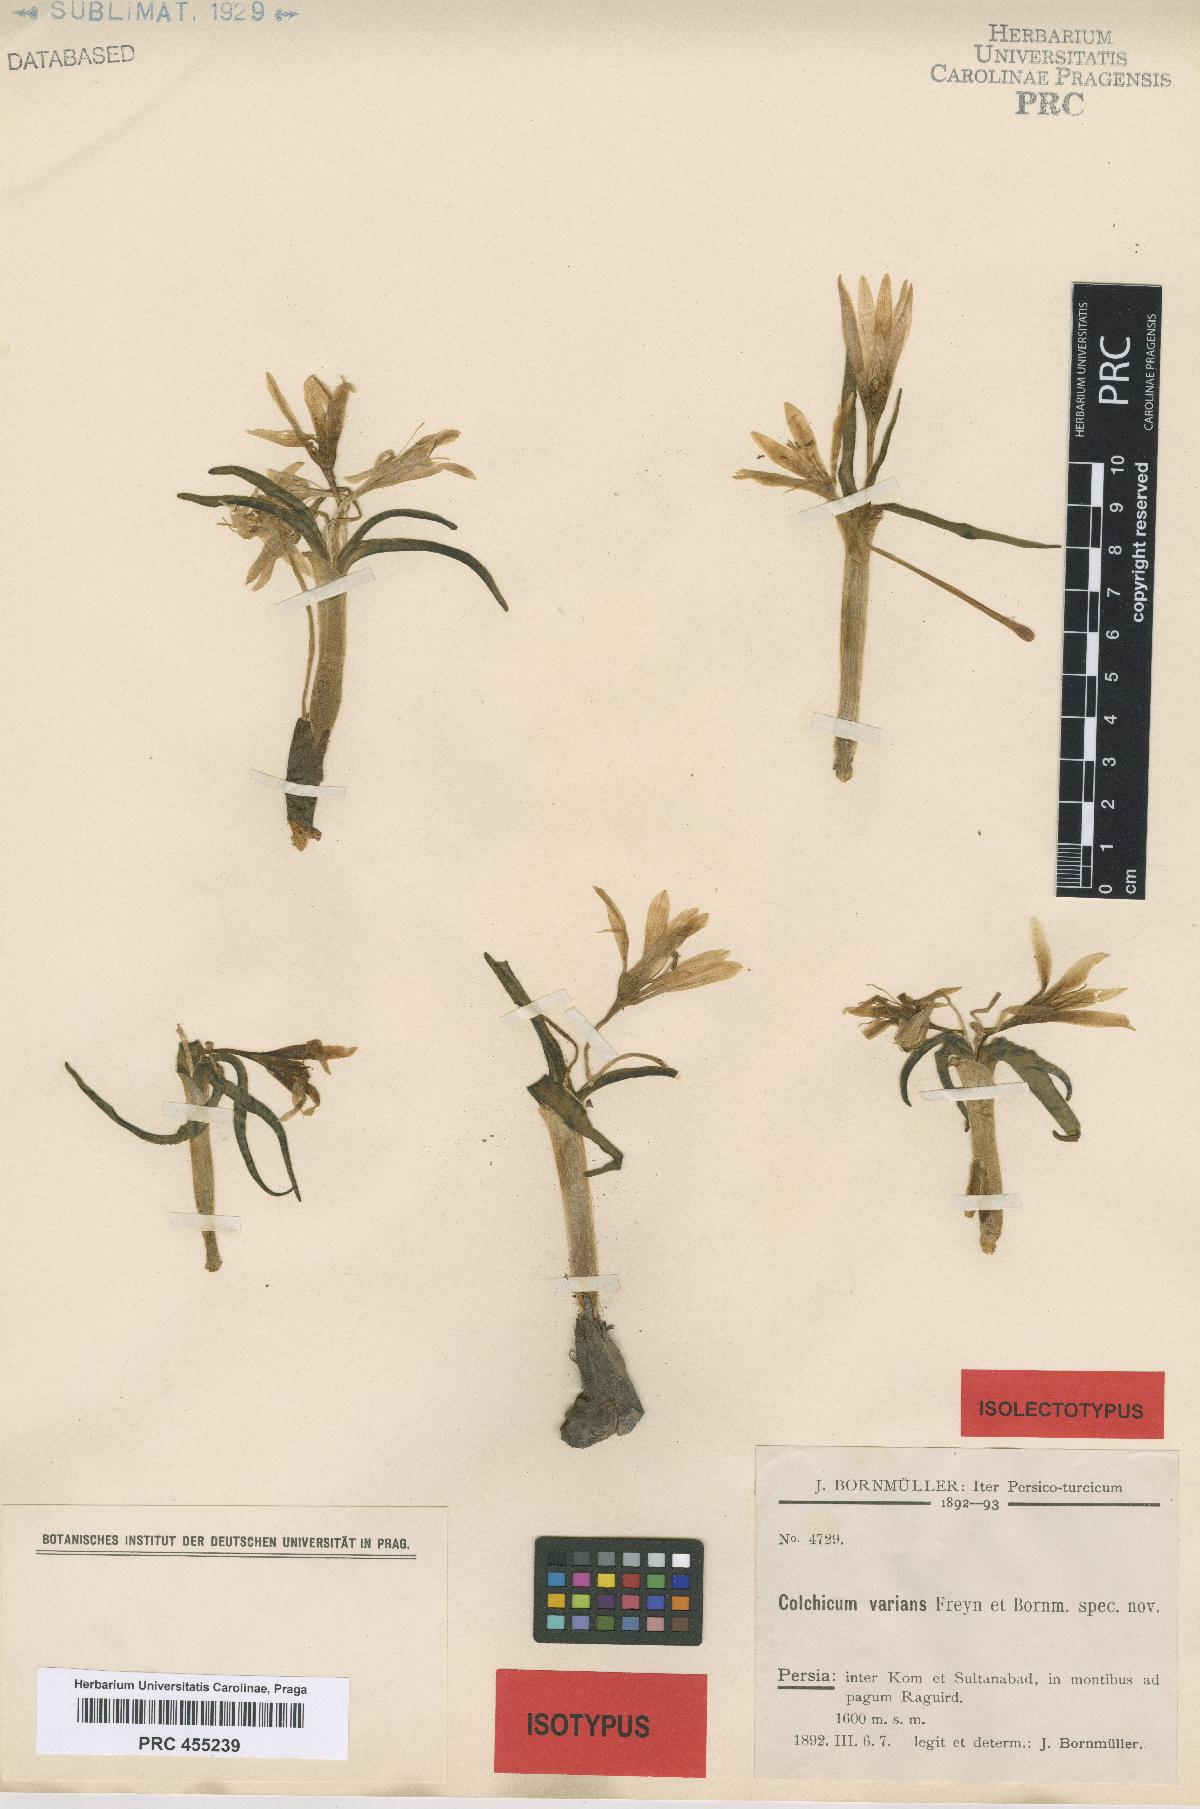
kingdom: Plantae
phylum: Tracheophyta
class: Liliopsida
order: Liliales
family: Colchicaceae
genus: Colchicum
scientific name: Colchicum varians
